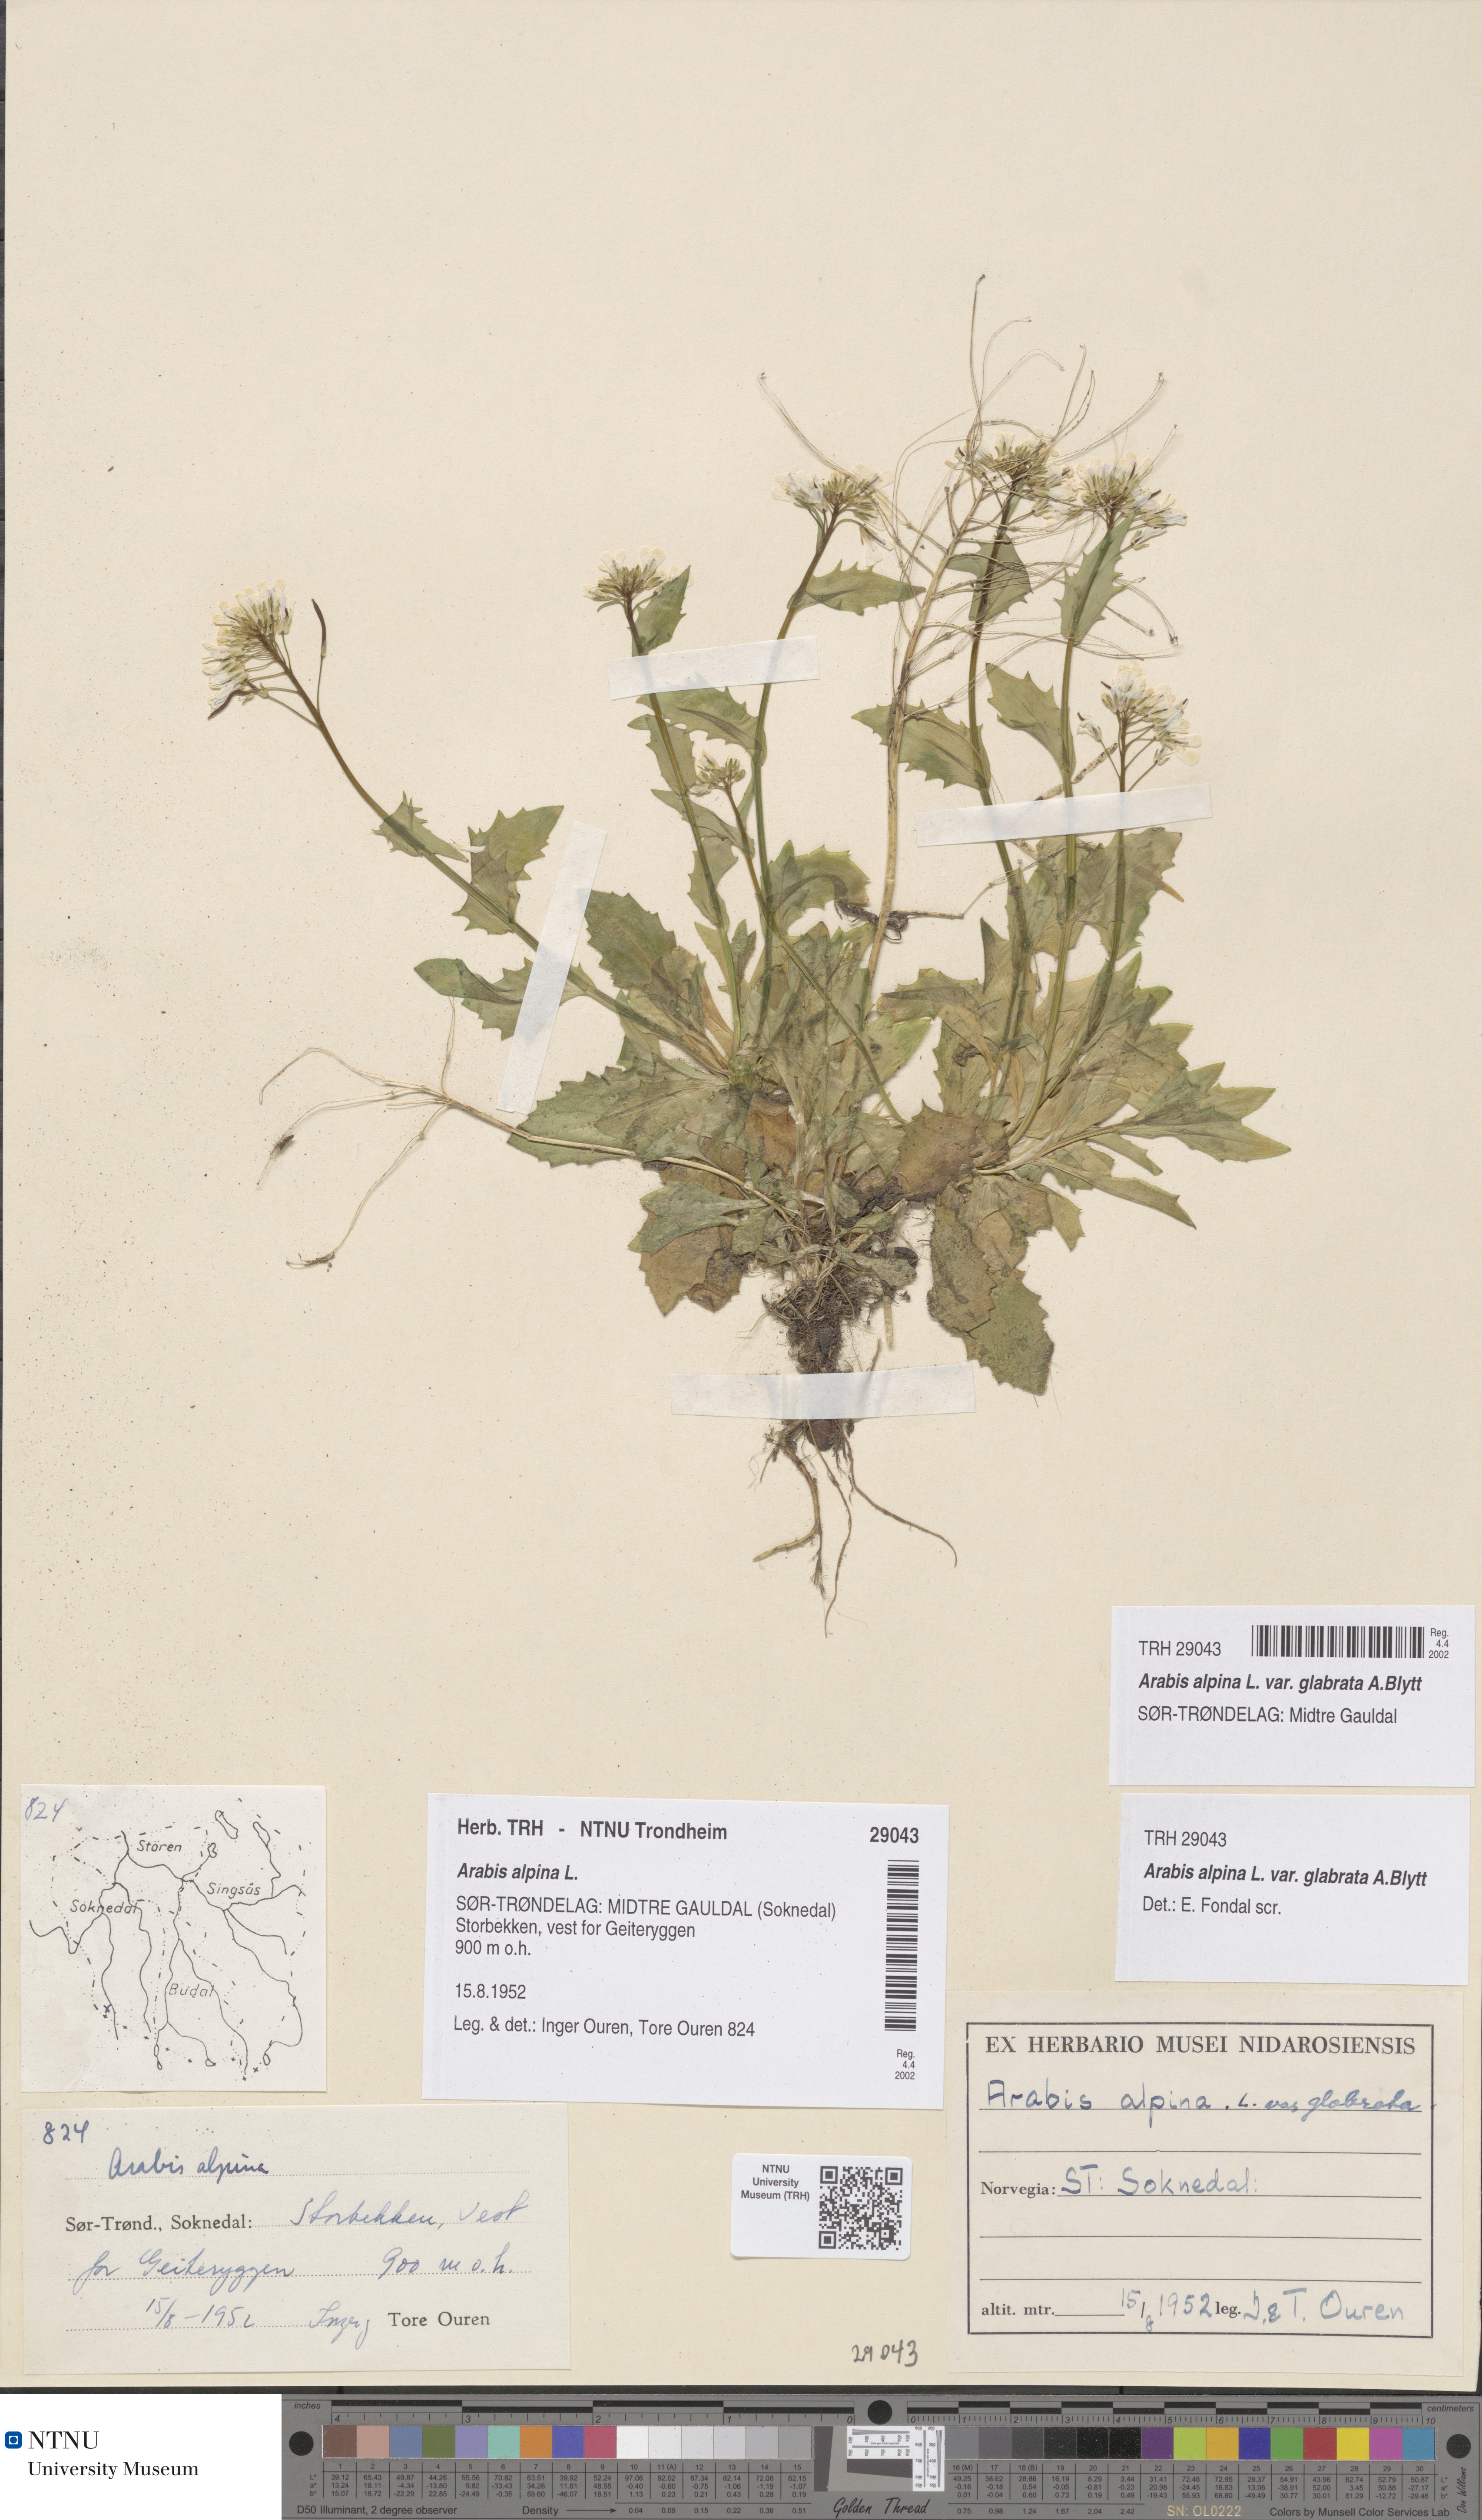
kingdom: Plantae
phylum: Tracheophyta
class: Magnoliopsida
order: Brassicales
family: Brassicaceae
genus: Arabis
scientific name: Arabis alpina
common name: Alpine rock-cress
